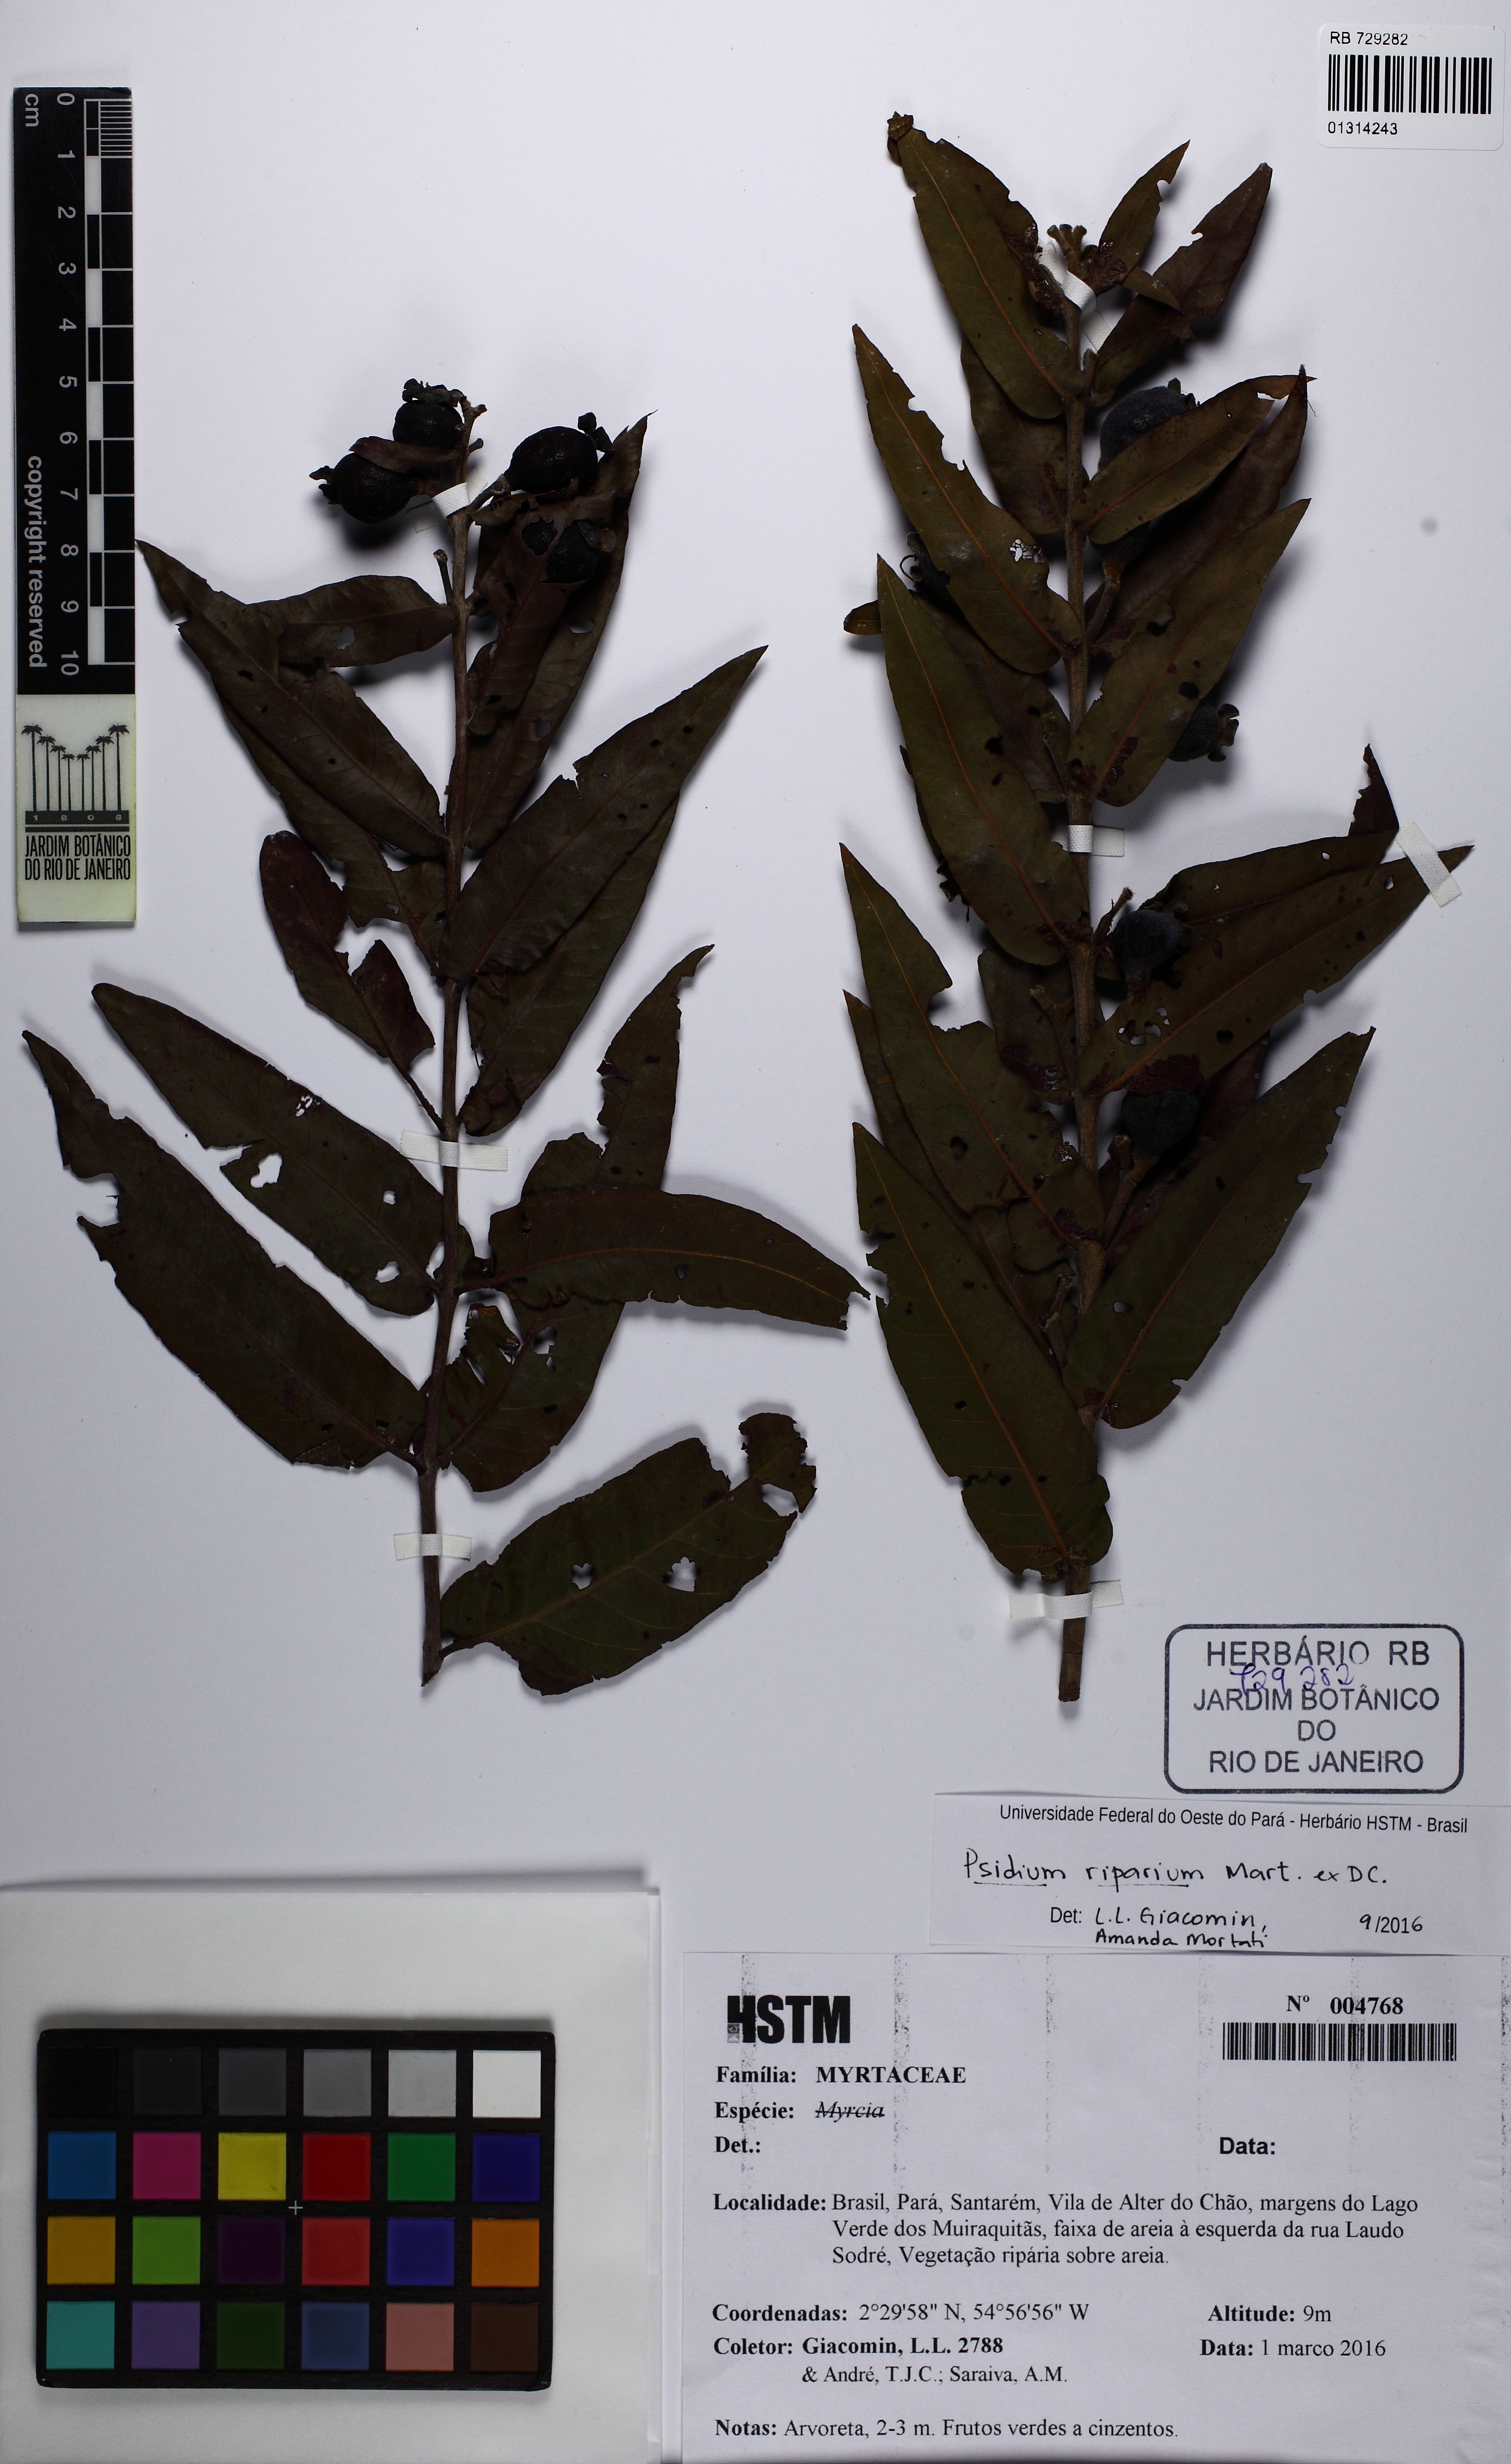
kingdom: Plantae
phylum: Tracheophyta
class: Magnoliopsida
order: Myrtales
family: Myrtaceae
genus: Psidium
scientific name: Psidium riparium
